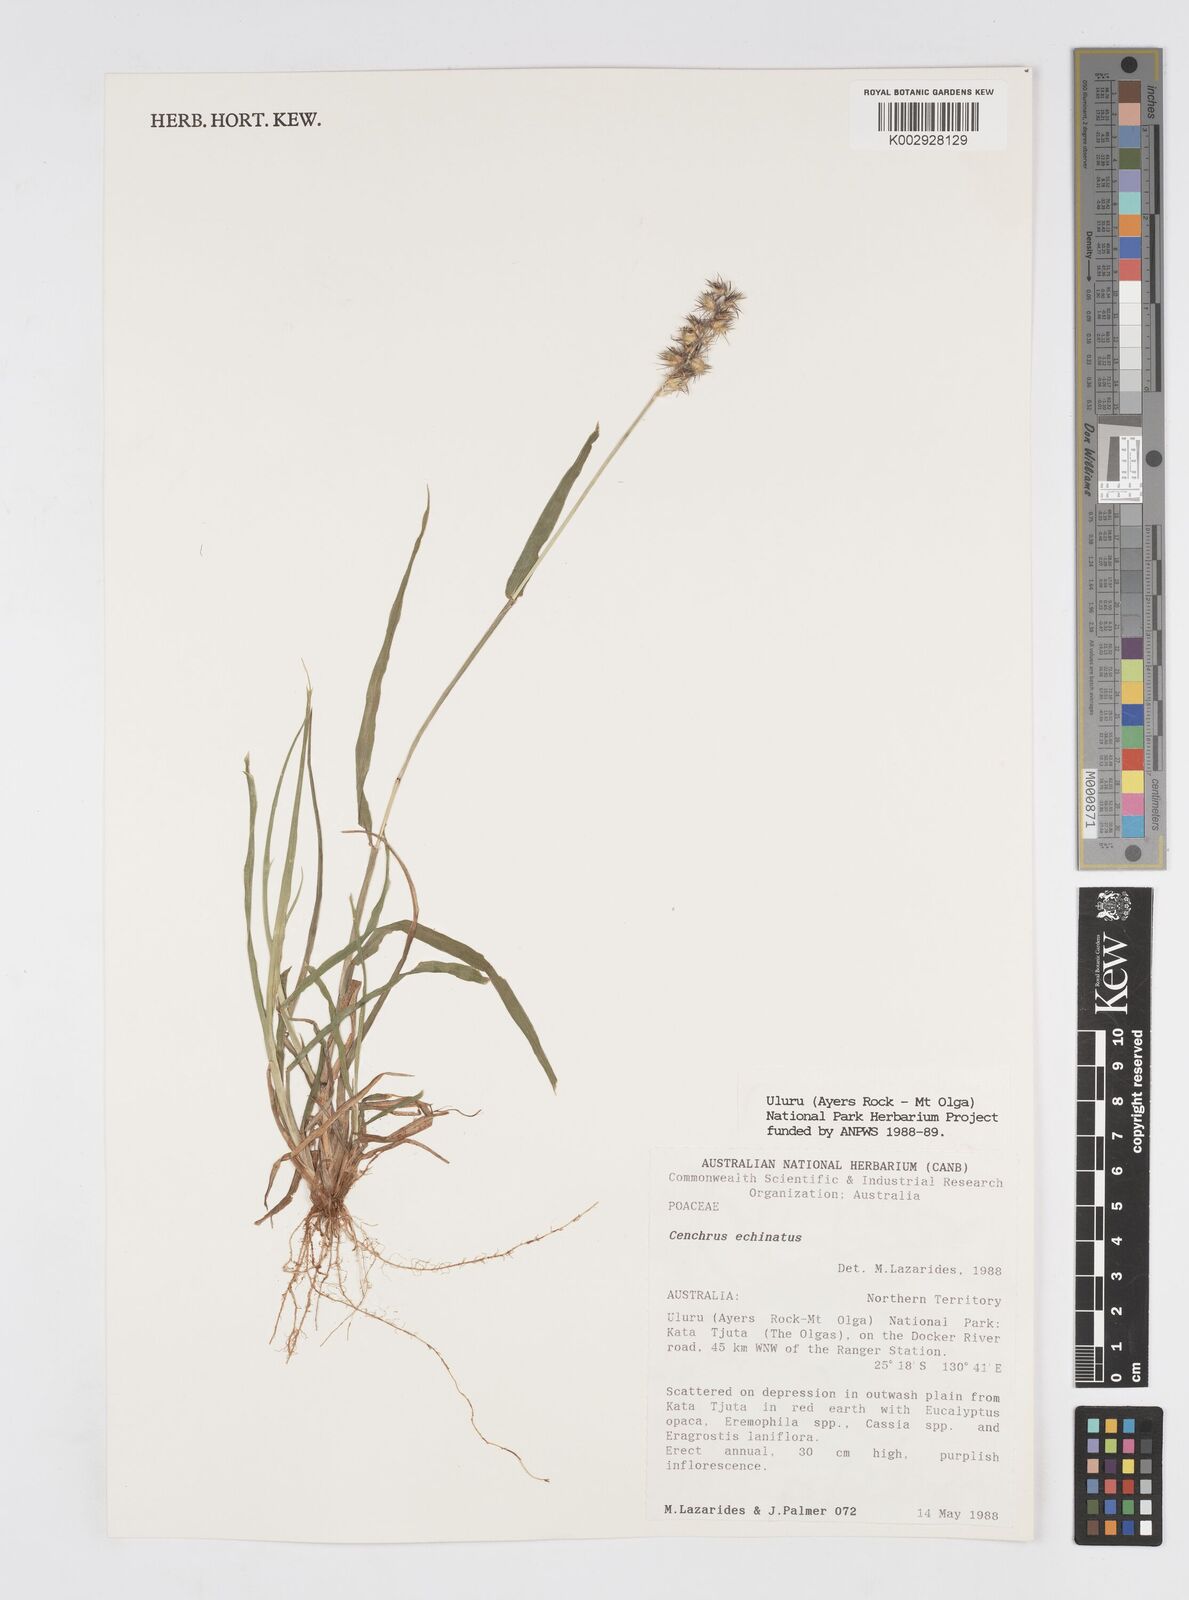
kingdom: Plantae
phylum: Tracheophyta
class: Liliopsida
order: Poales
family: Poaceae
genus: Cenchrus
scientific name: Cenchrus echinatus
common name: Southern sandbur
